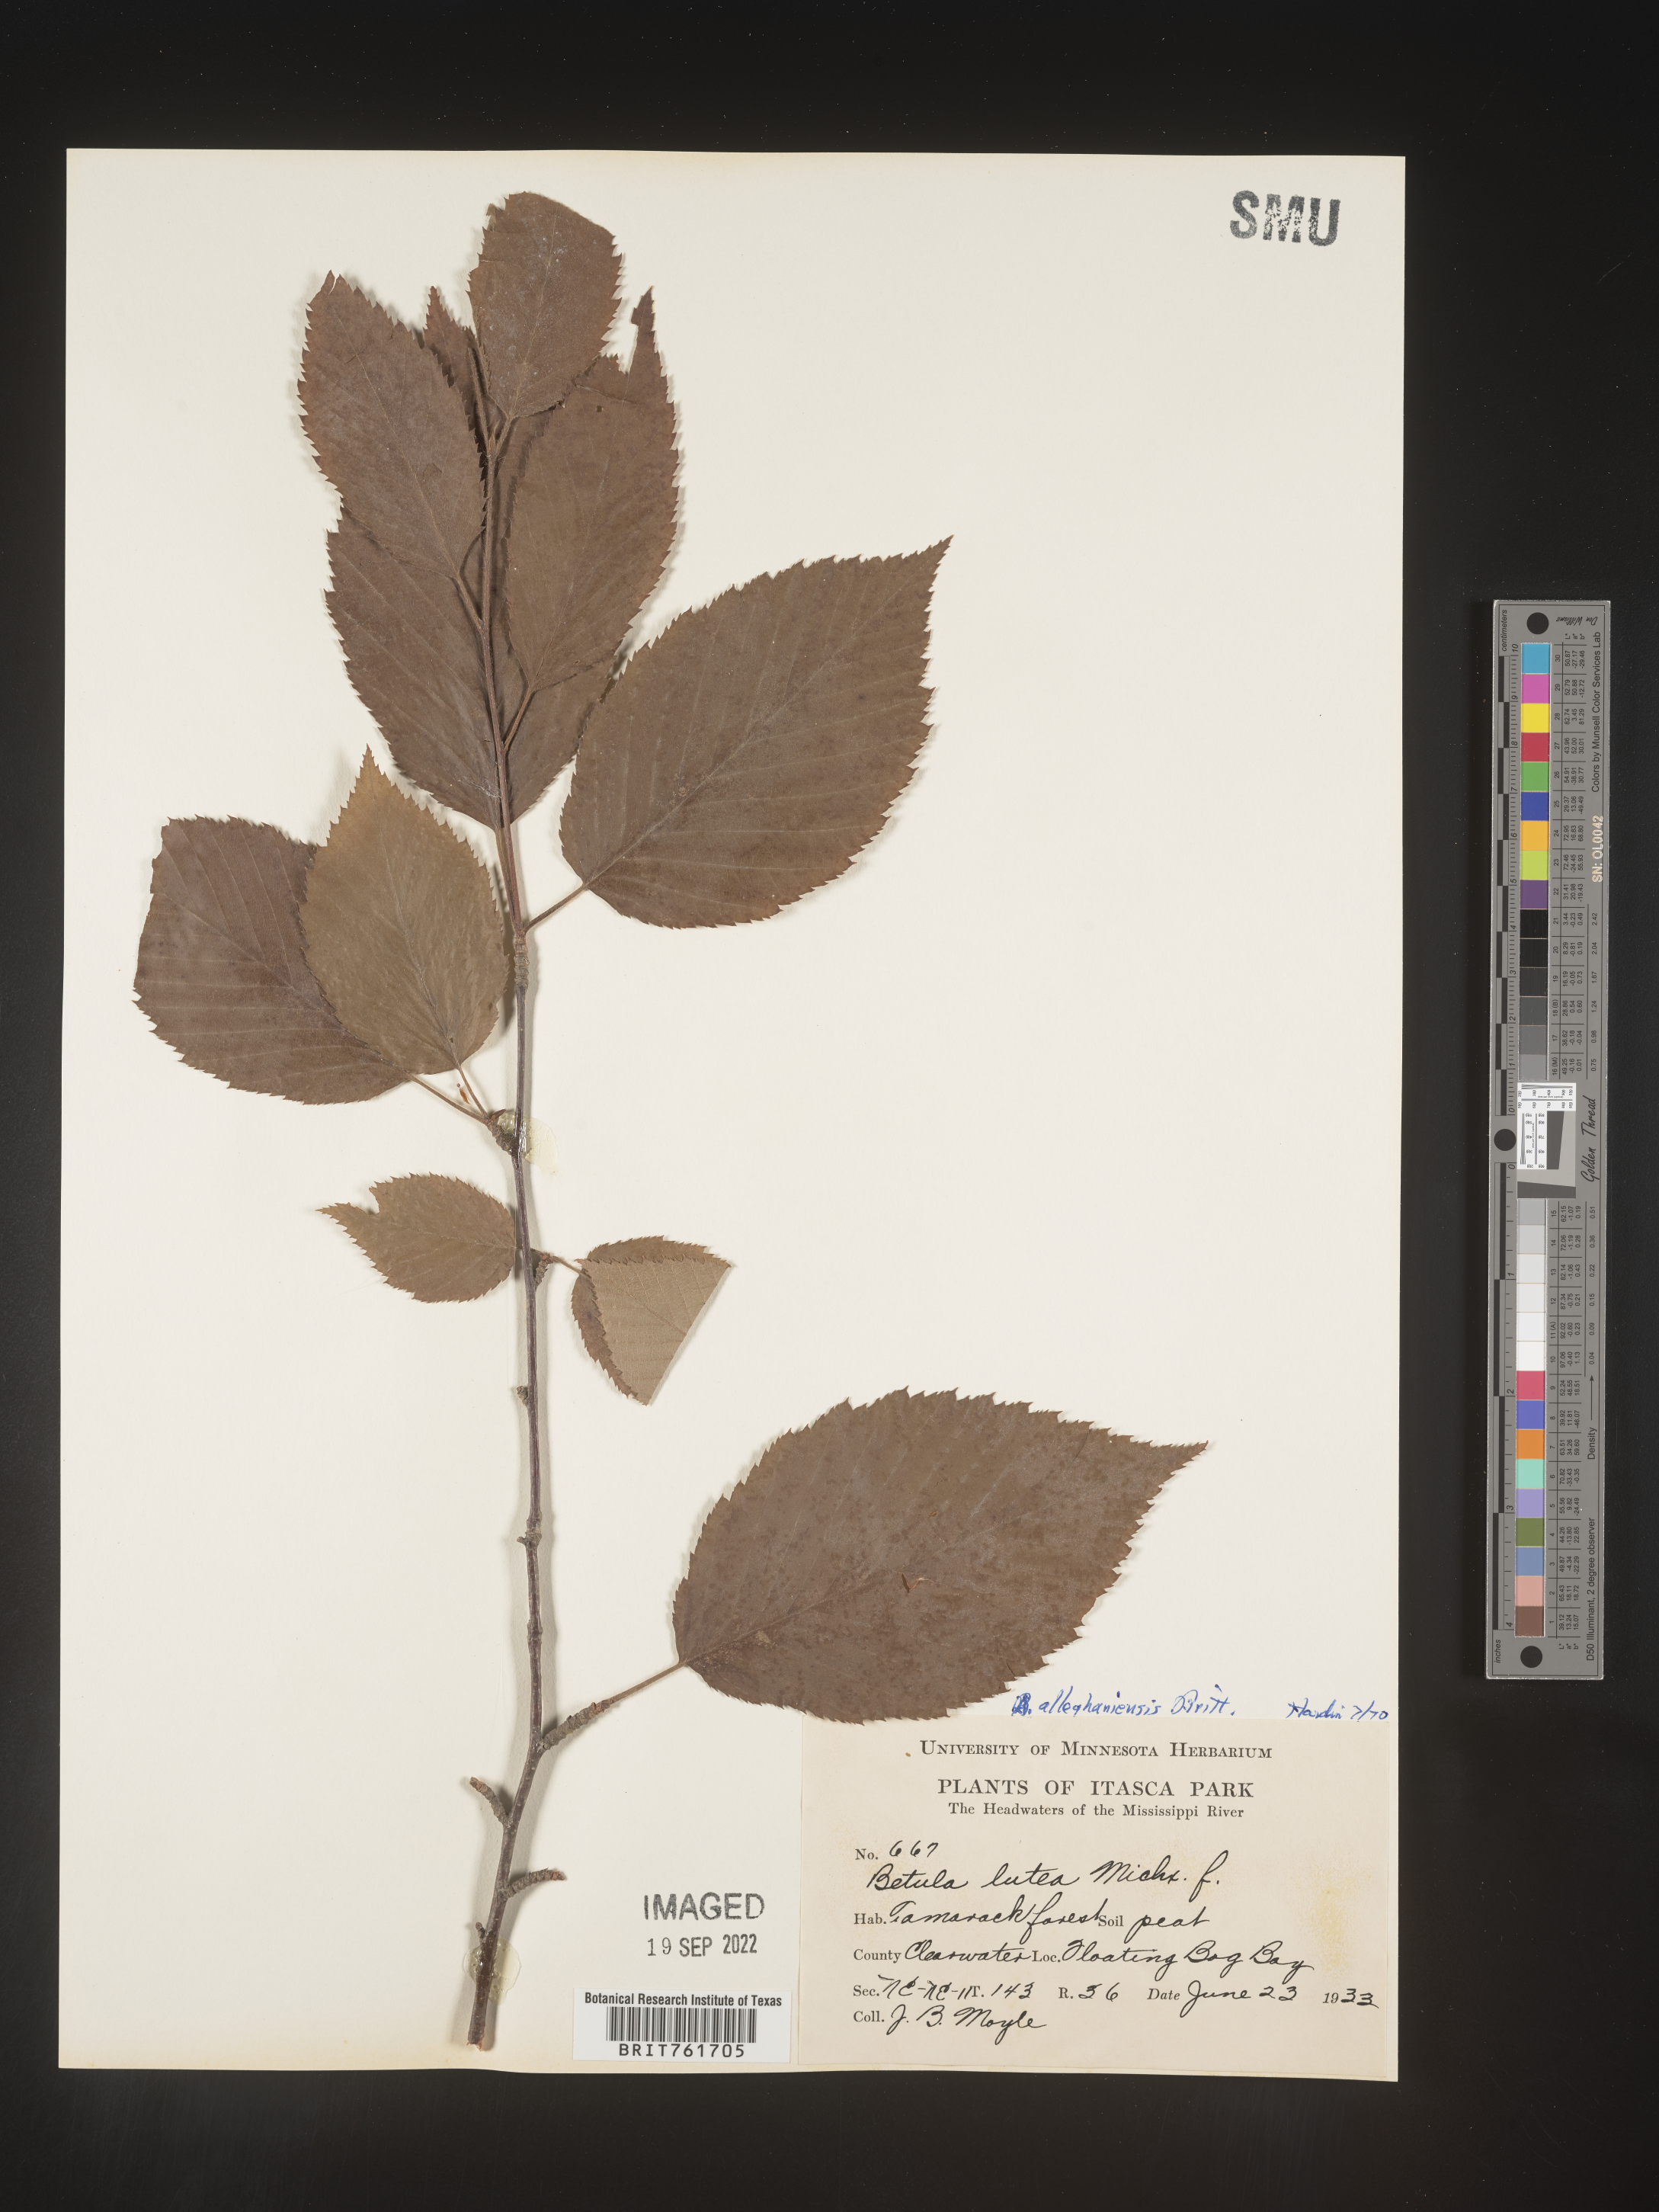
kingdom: Plantae
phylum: Tracheophyta
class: Magnoliopsida
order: Fagales
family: Betulaceae
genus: Betula
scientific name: Betula alleghaniensis
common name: Yellow birch
